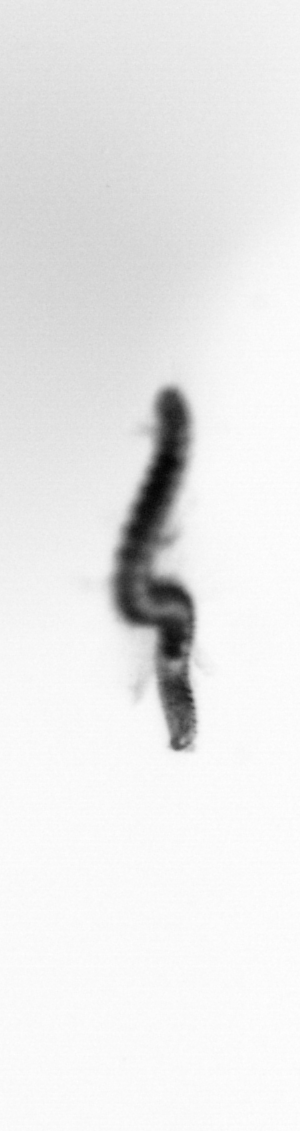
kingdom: Animalia
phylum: Annelida
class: Polychaeta
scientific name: Polychaeta
